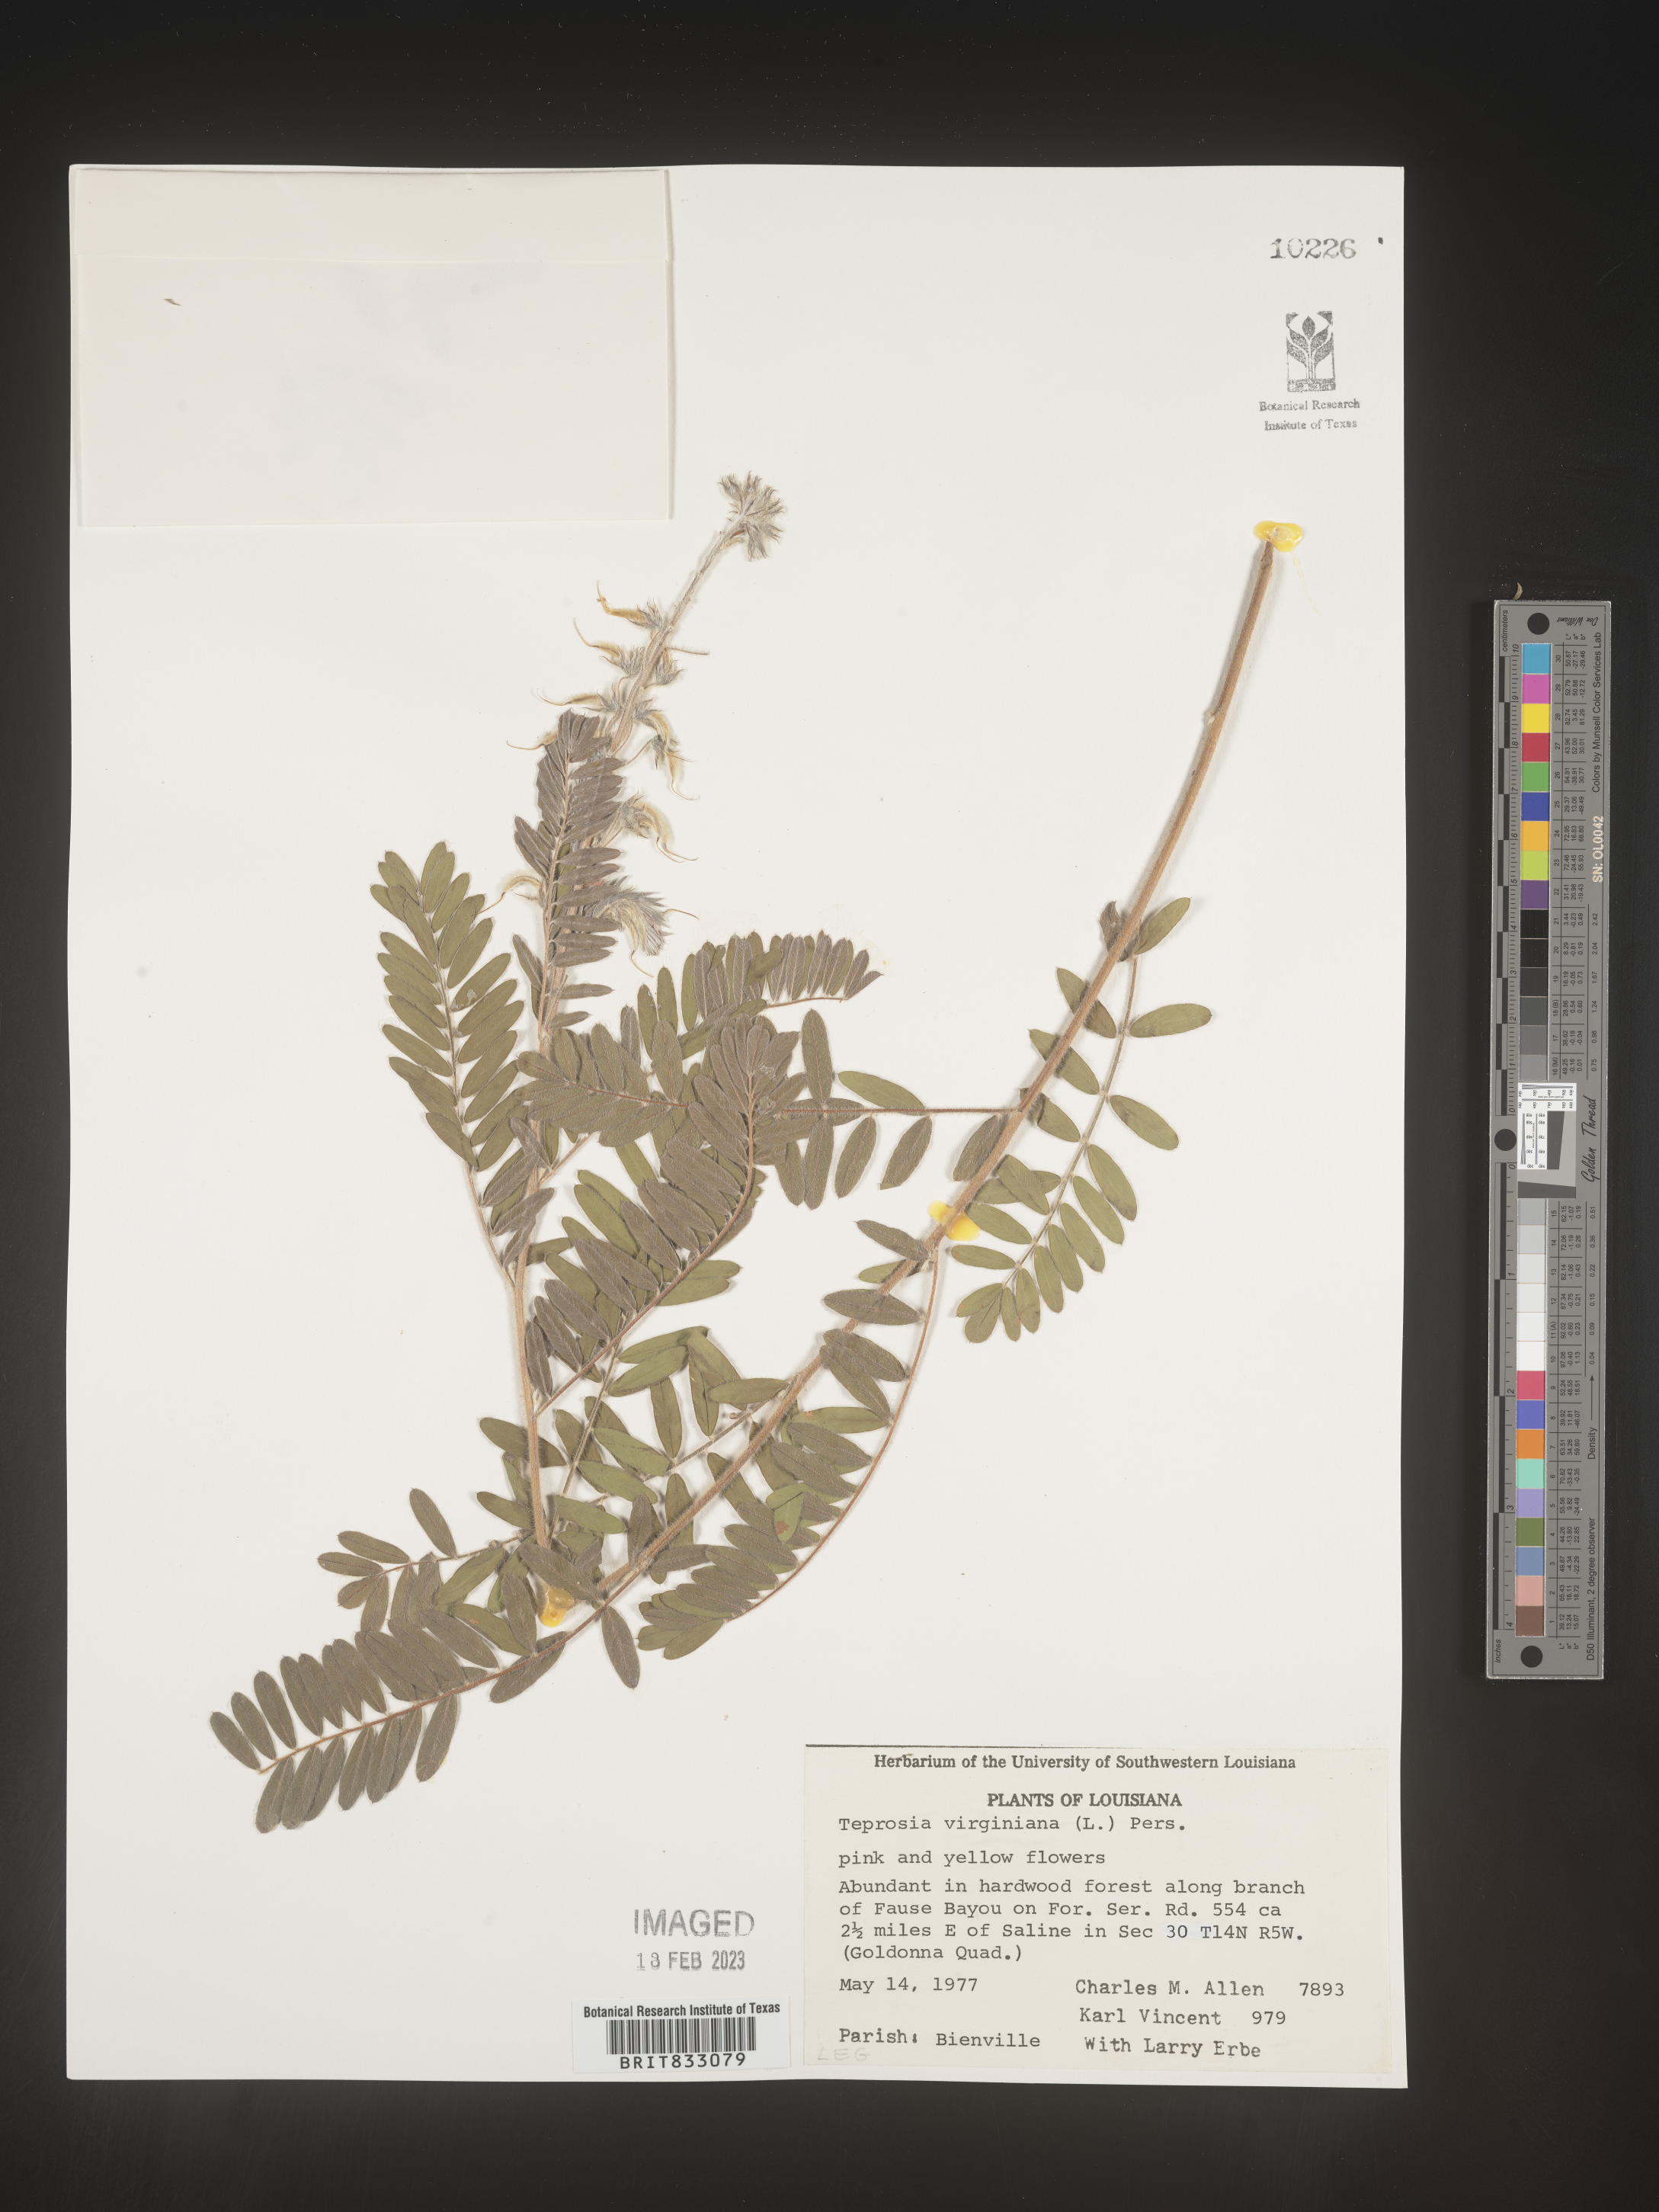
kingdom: Plantae
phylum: Tracheophyta
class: Magnoliopsida
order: Fabales
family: Fabaceae
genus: Tephrosia
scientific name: Tephrosia virginiana
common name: Rabbit-pea
